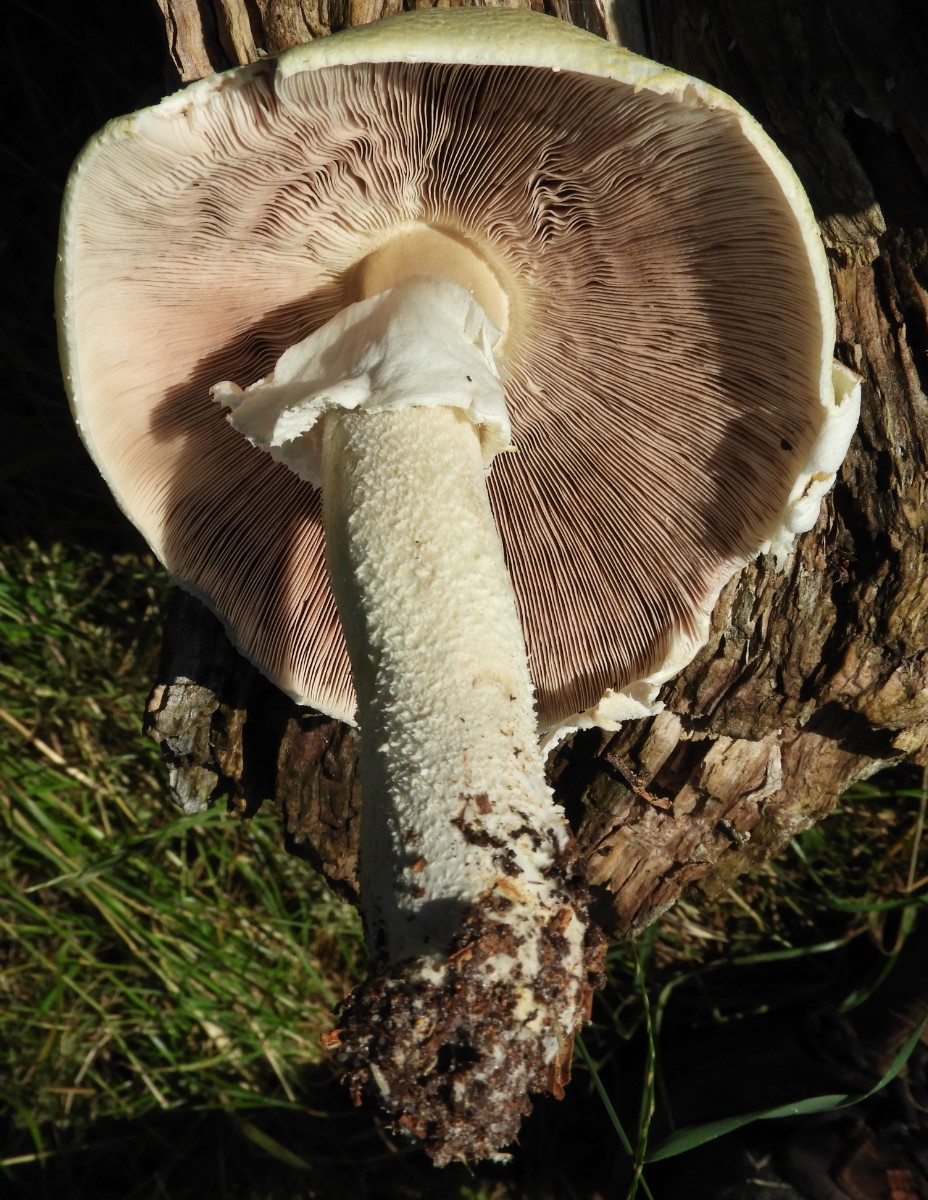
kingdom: Fungi
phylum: Basidiomycota
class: Agaricomycetes
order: Agaricales
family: Agaricaceae
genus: Agaricus
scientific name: Agaricus arvensis
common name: ager-champignon
